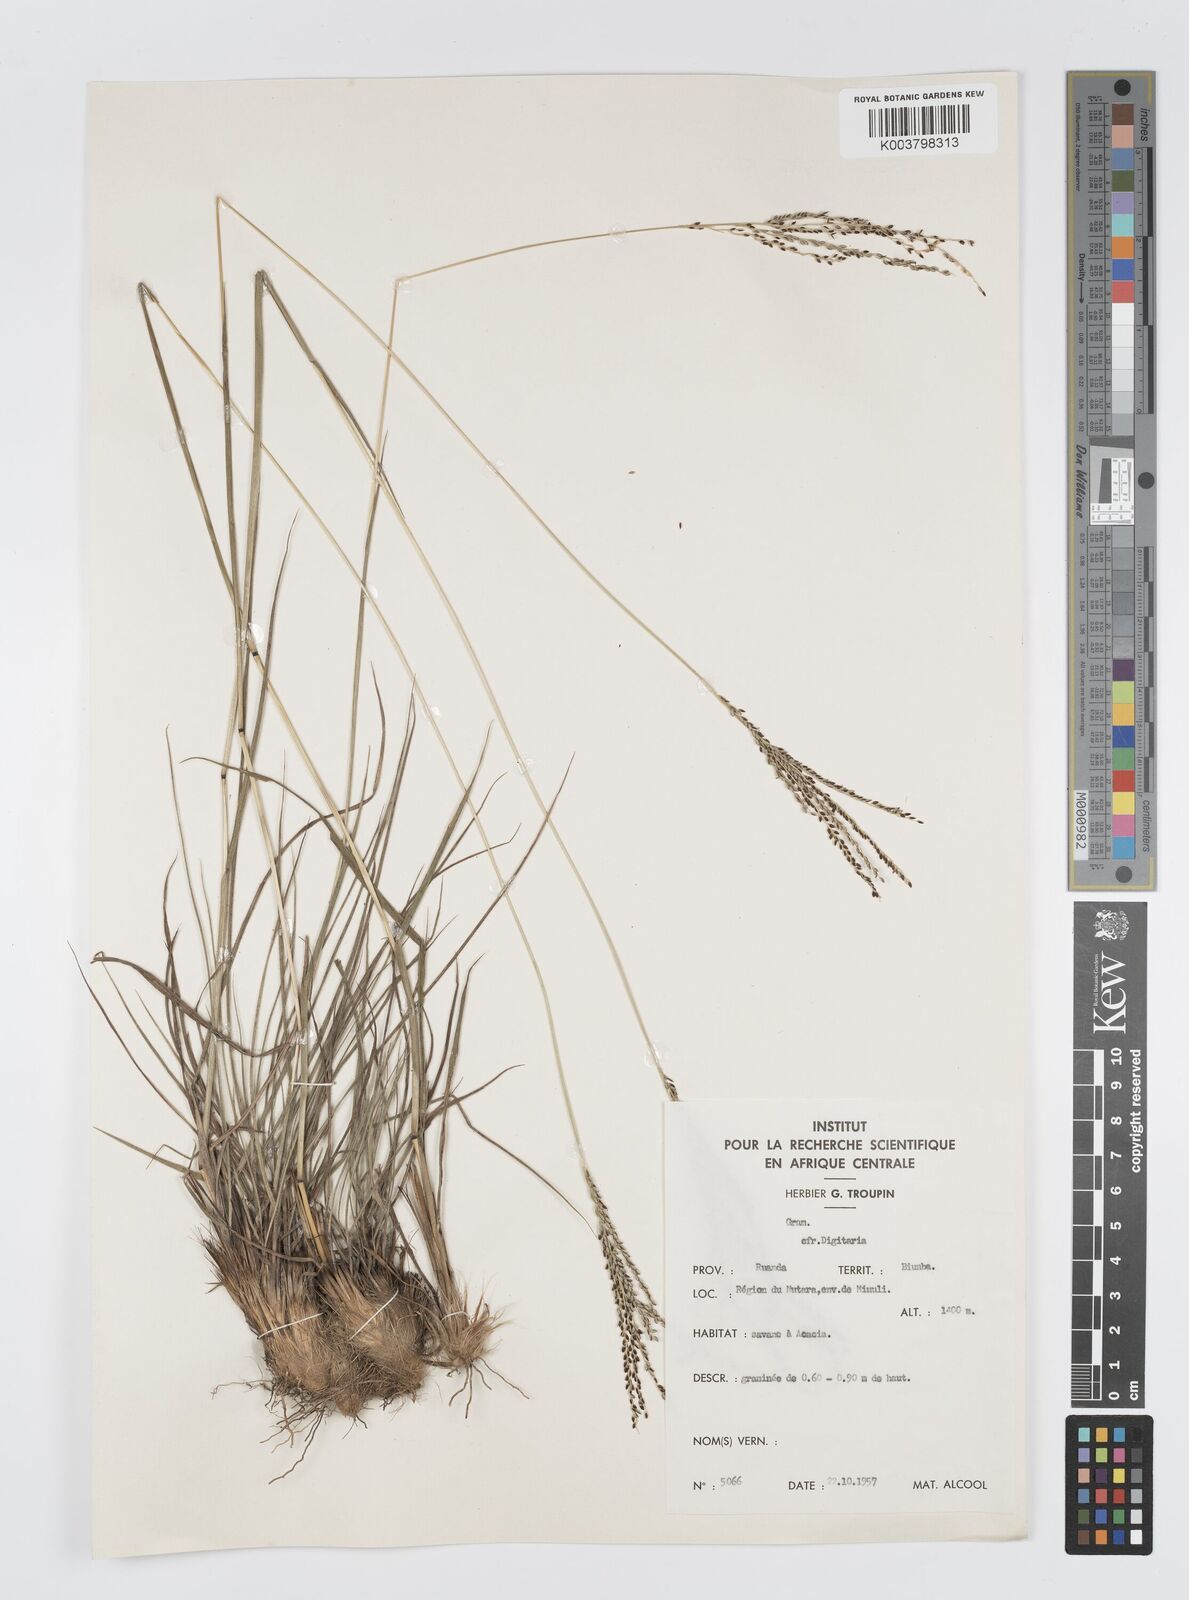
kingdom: Plantae
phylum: Tracheophyta
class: Liliopsida
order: Poales
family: Poaceae
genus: Digitaria
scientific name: Digitaria maitlandii
